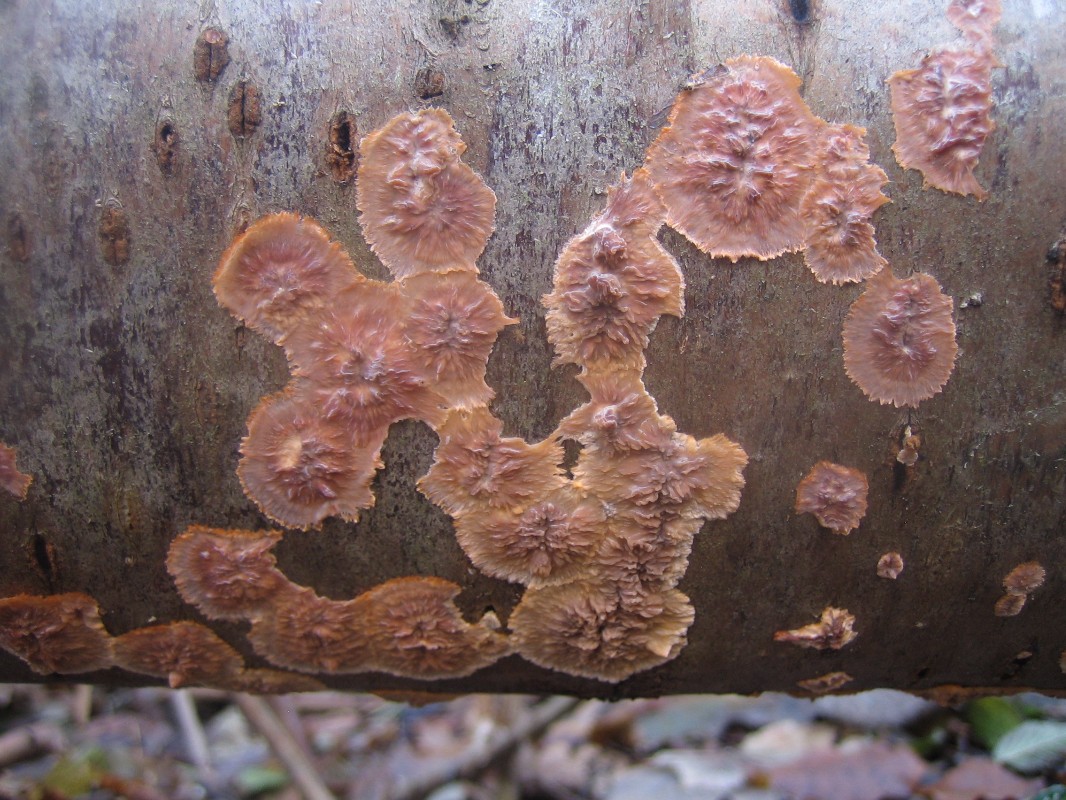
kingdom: Fungi
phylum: Basidiomycota
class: Agaricomycetes
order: Polyporales
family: Meruliaceae
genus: Phlebia
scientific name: Phlebia radiata
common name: stråle-åresvamp
